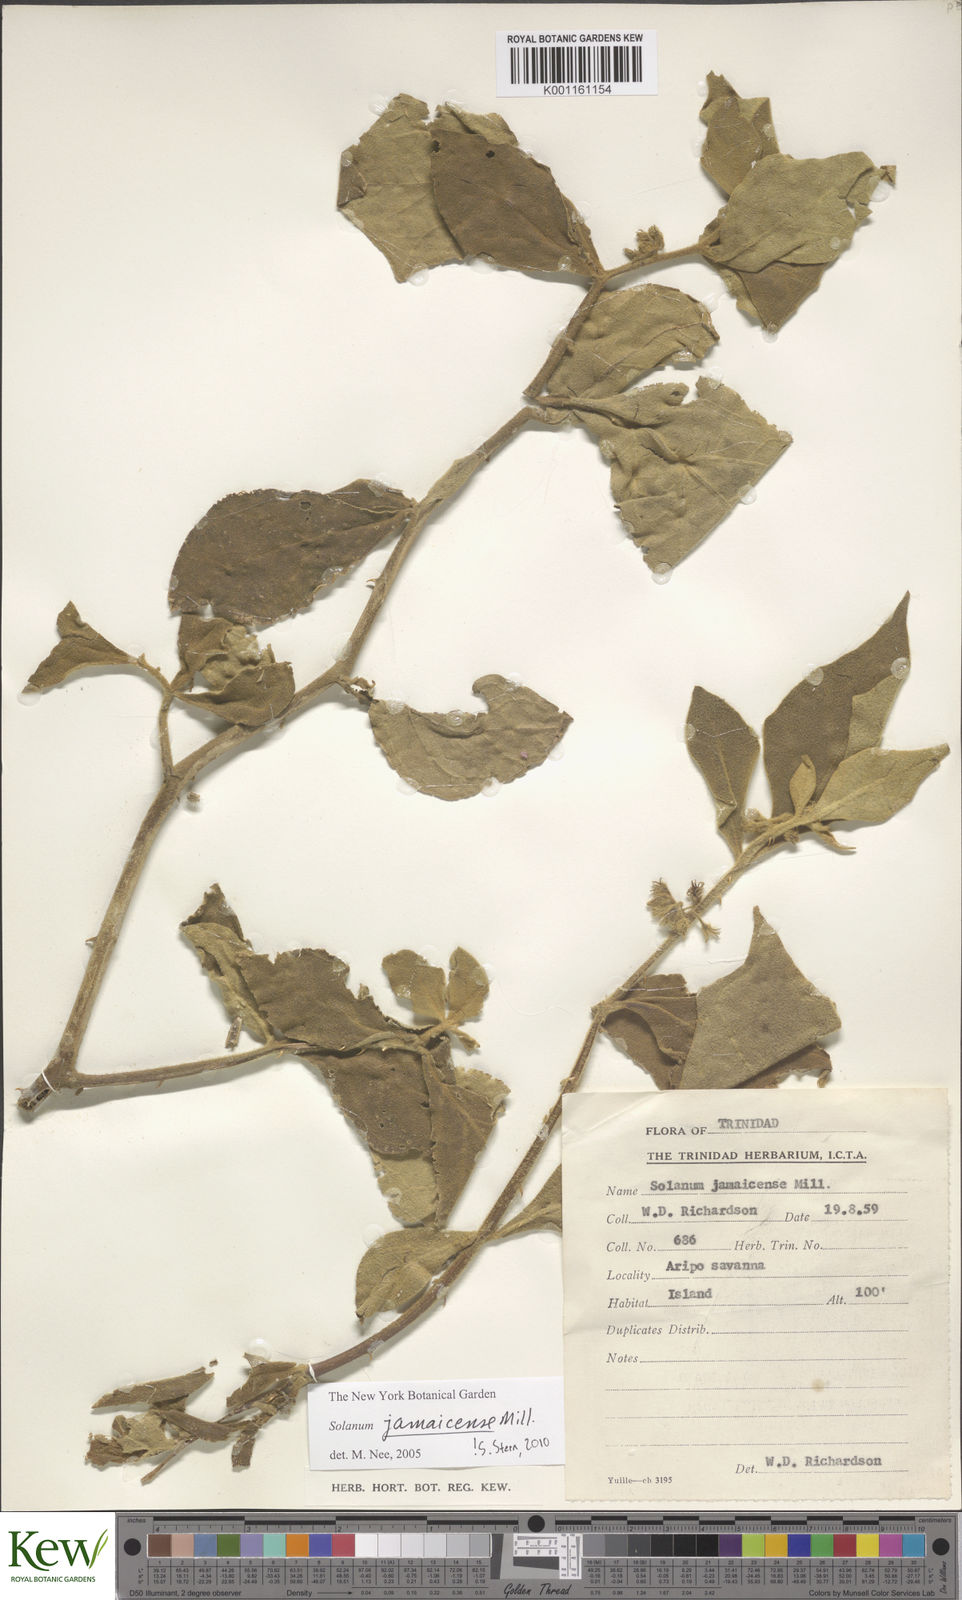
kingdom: Plantae
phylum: Tracheophyta
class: Magnoliopsida
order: Solanales
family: Solanaceae
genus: Solanum
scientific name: Solanum jamaicense
